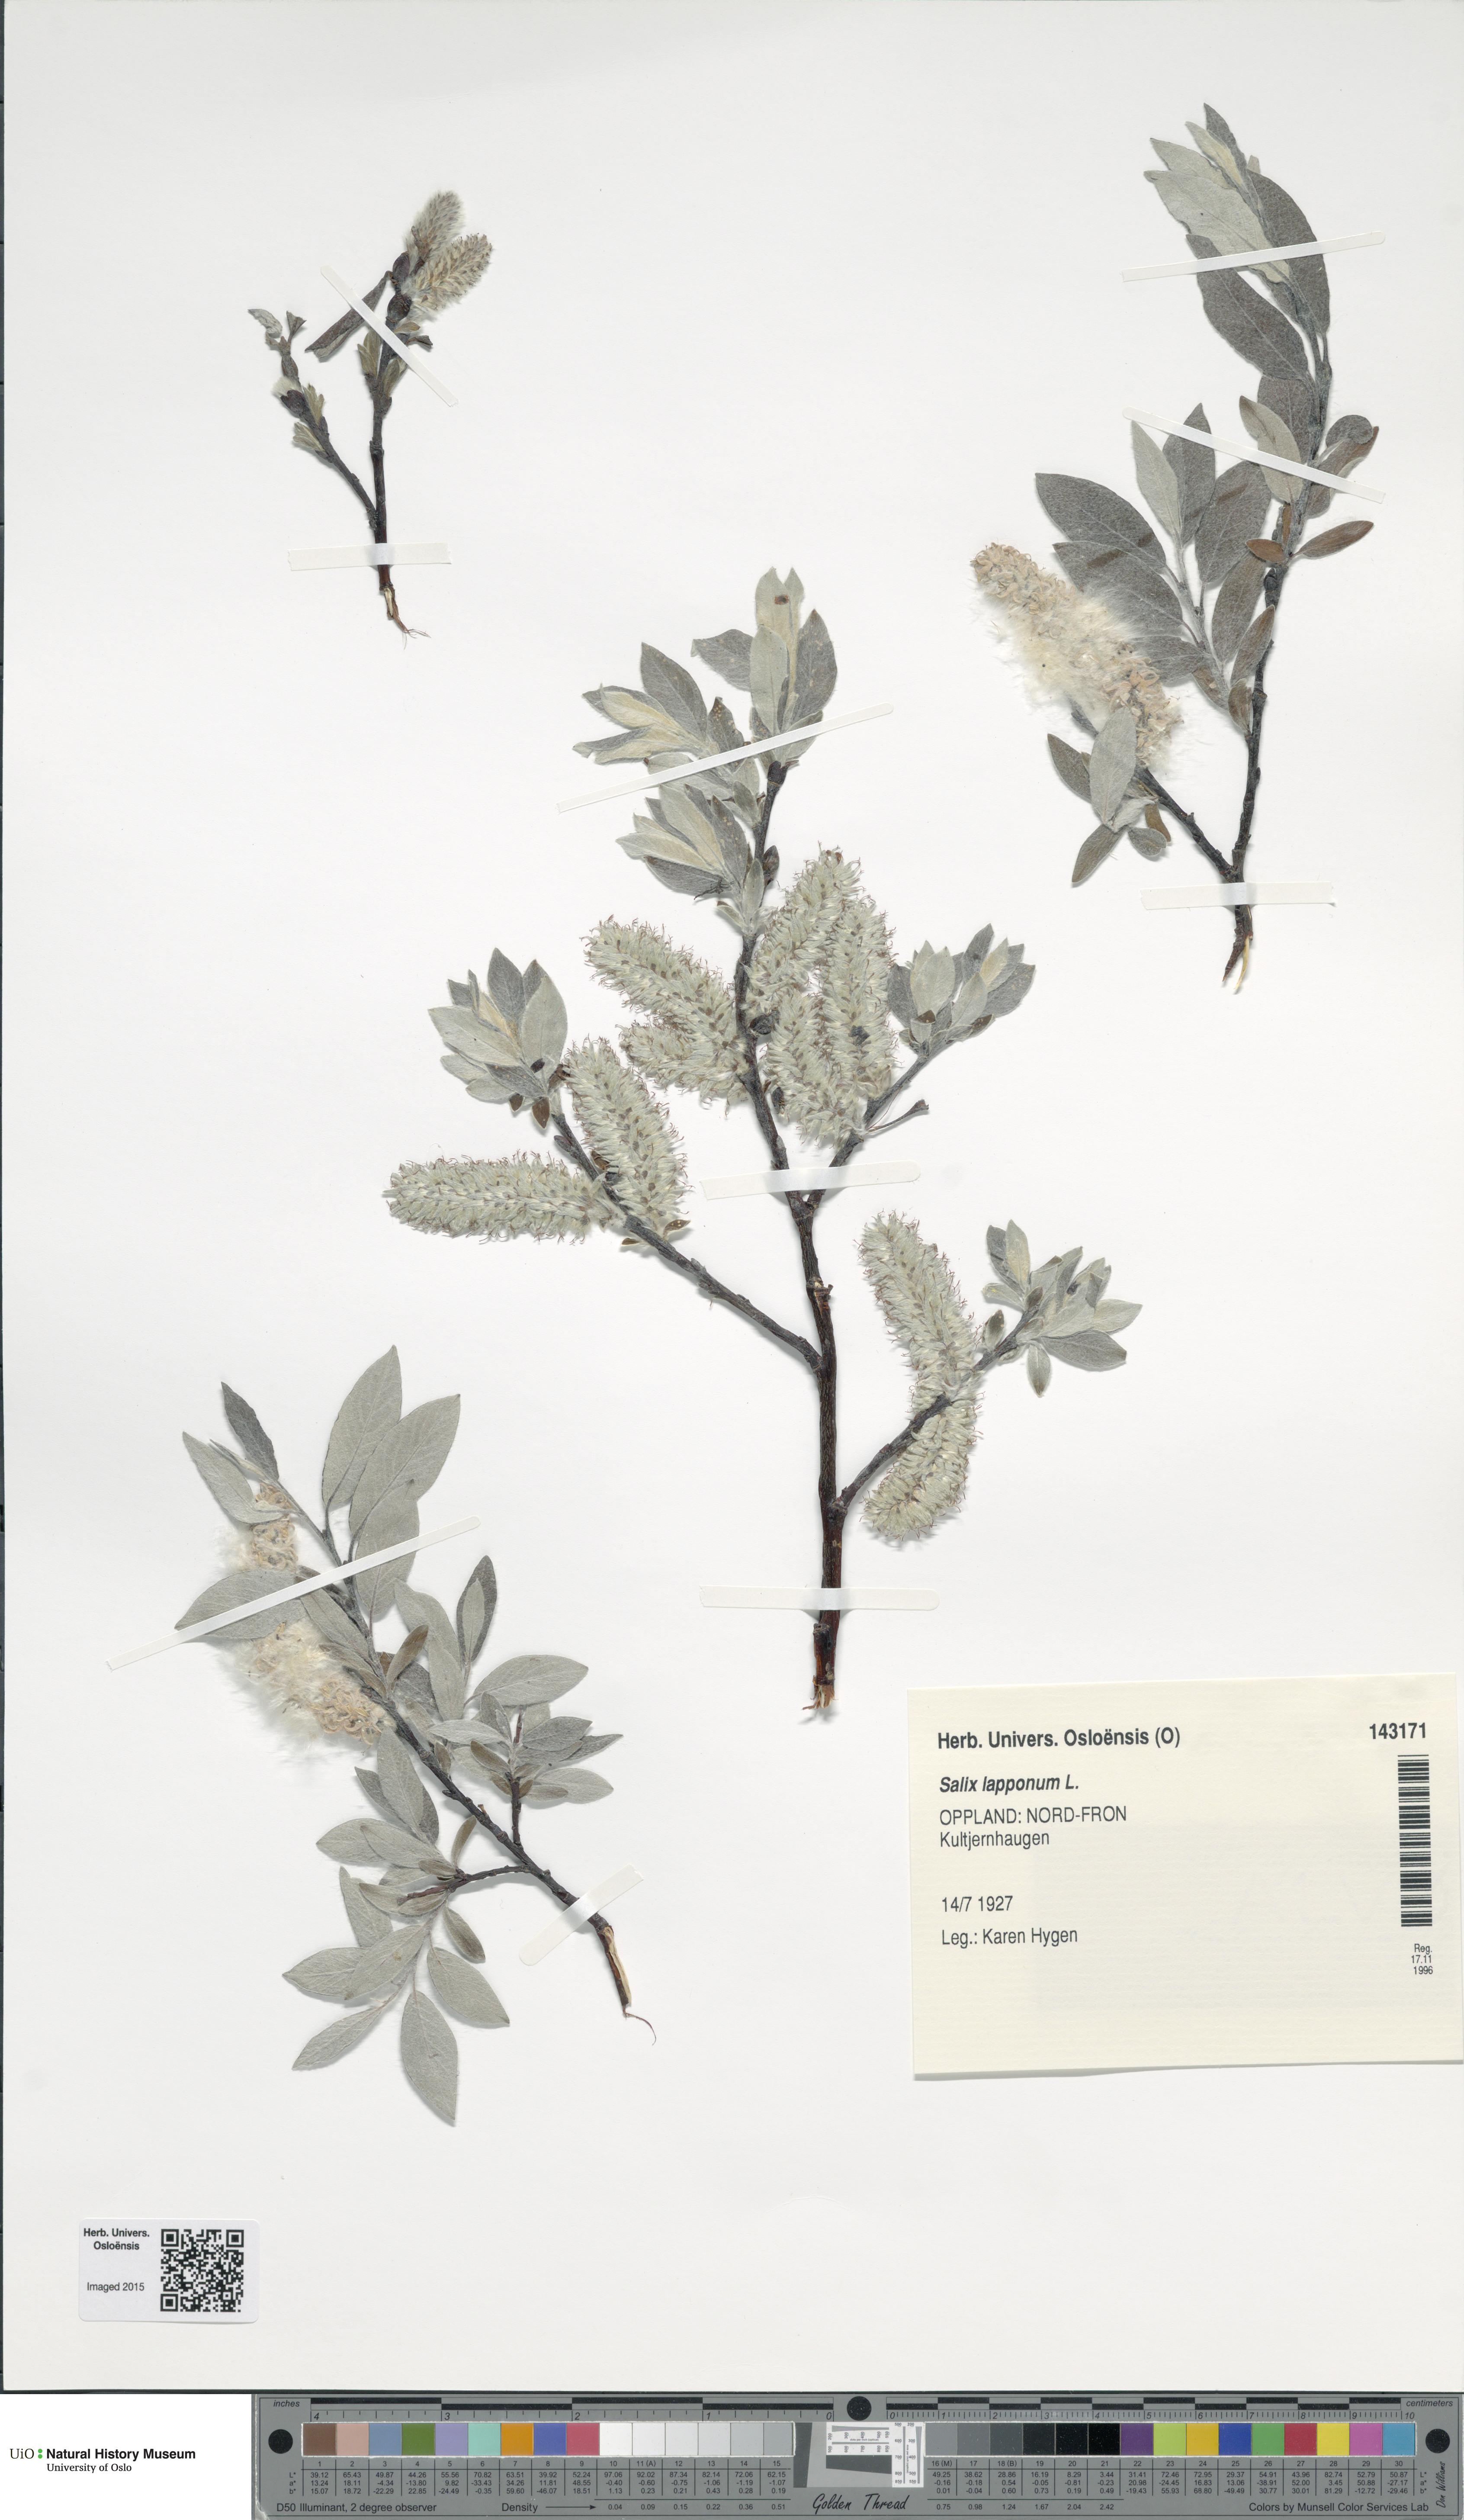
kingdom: Plantae
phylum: Tracheophyta
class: Magnoliopsida
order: Malpighiales
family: Salicaceae
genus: Salix
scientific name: Salix lapponum
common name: Downy willow
